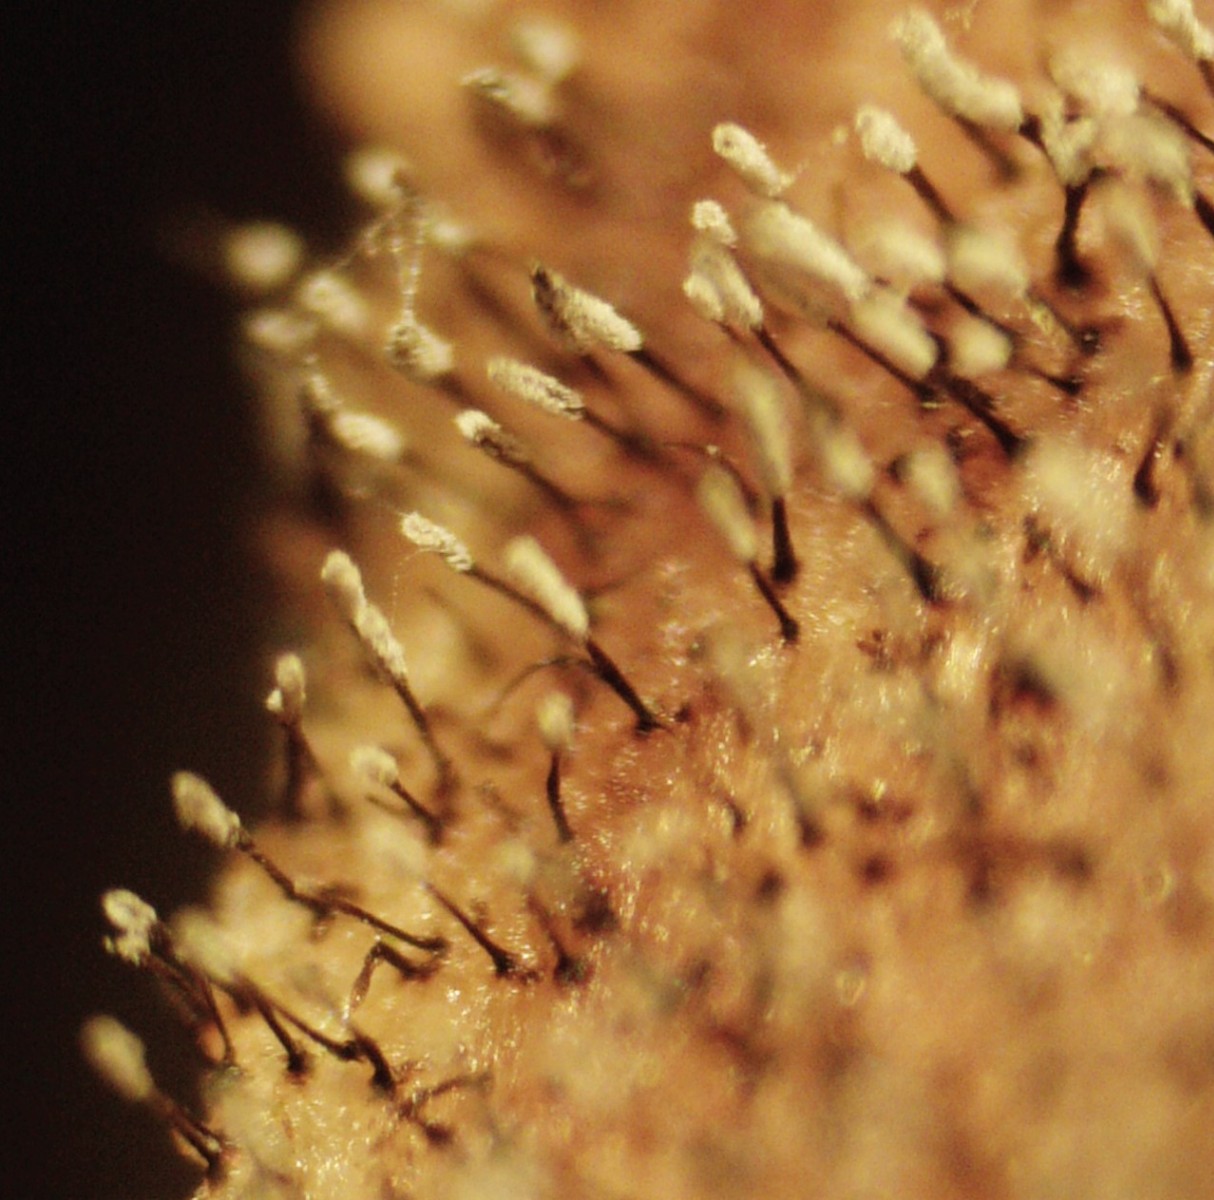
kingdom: Fungi
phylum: Ascomycota
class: Sordariomycetes
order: Microascales
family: Microascaceae
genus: Cephalotrichum
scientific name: Cephalotrichum stemonitis
